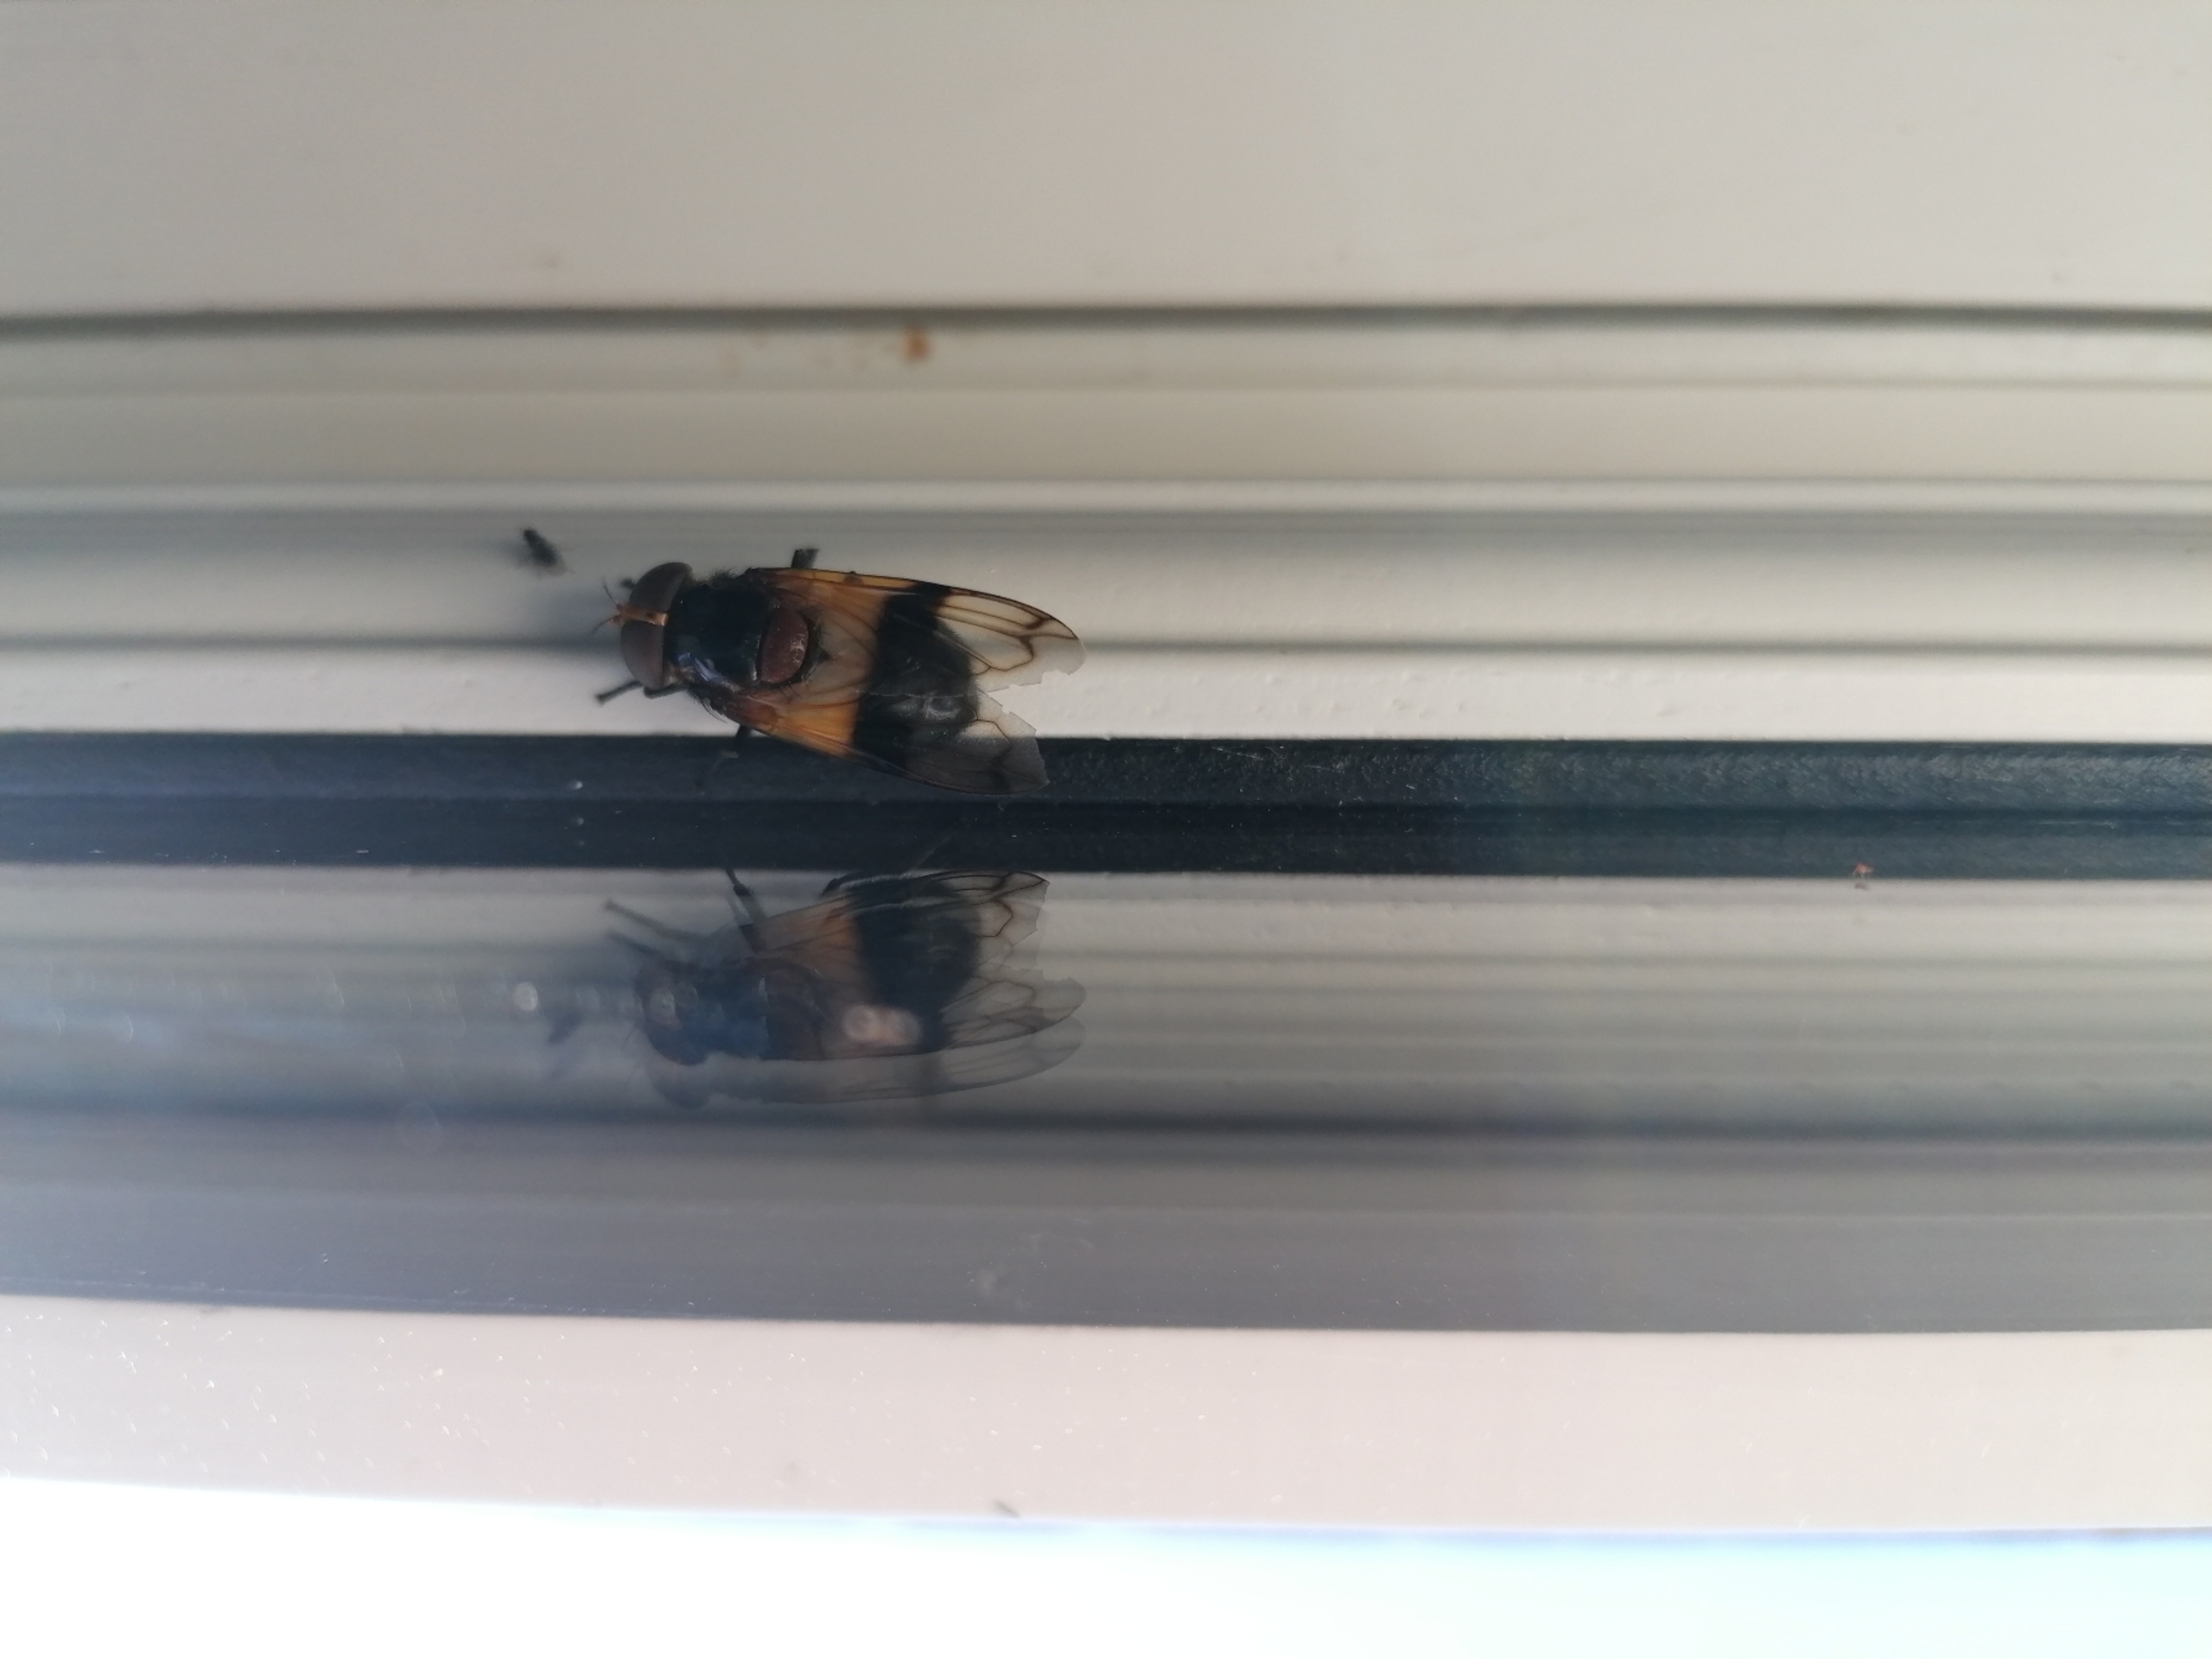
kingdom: Animalia
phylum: Arthropoda
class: Insecta
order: Diptera
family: Syrphidae
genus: Volucella
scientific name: Volucella pellucens
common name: Hvidbåndet humlesvirreflue
